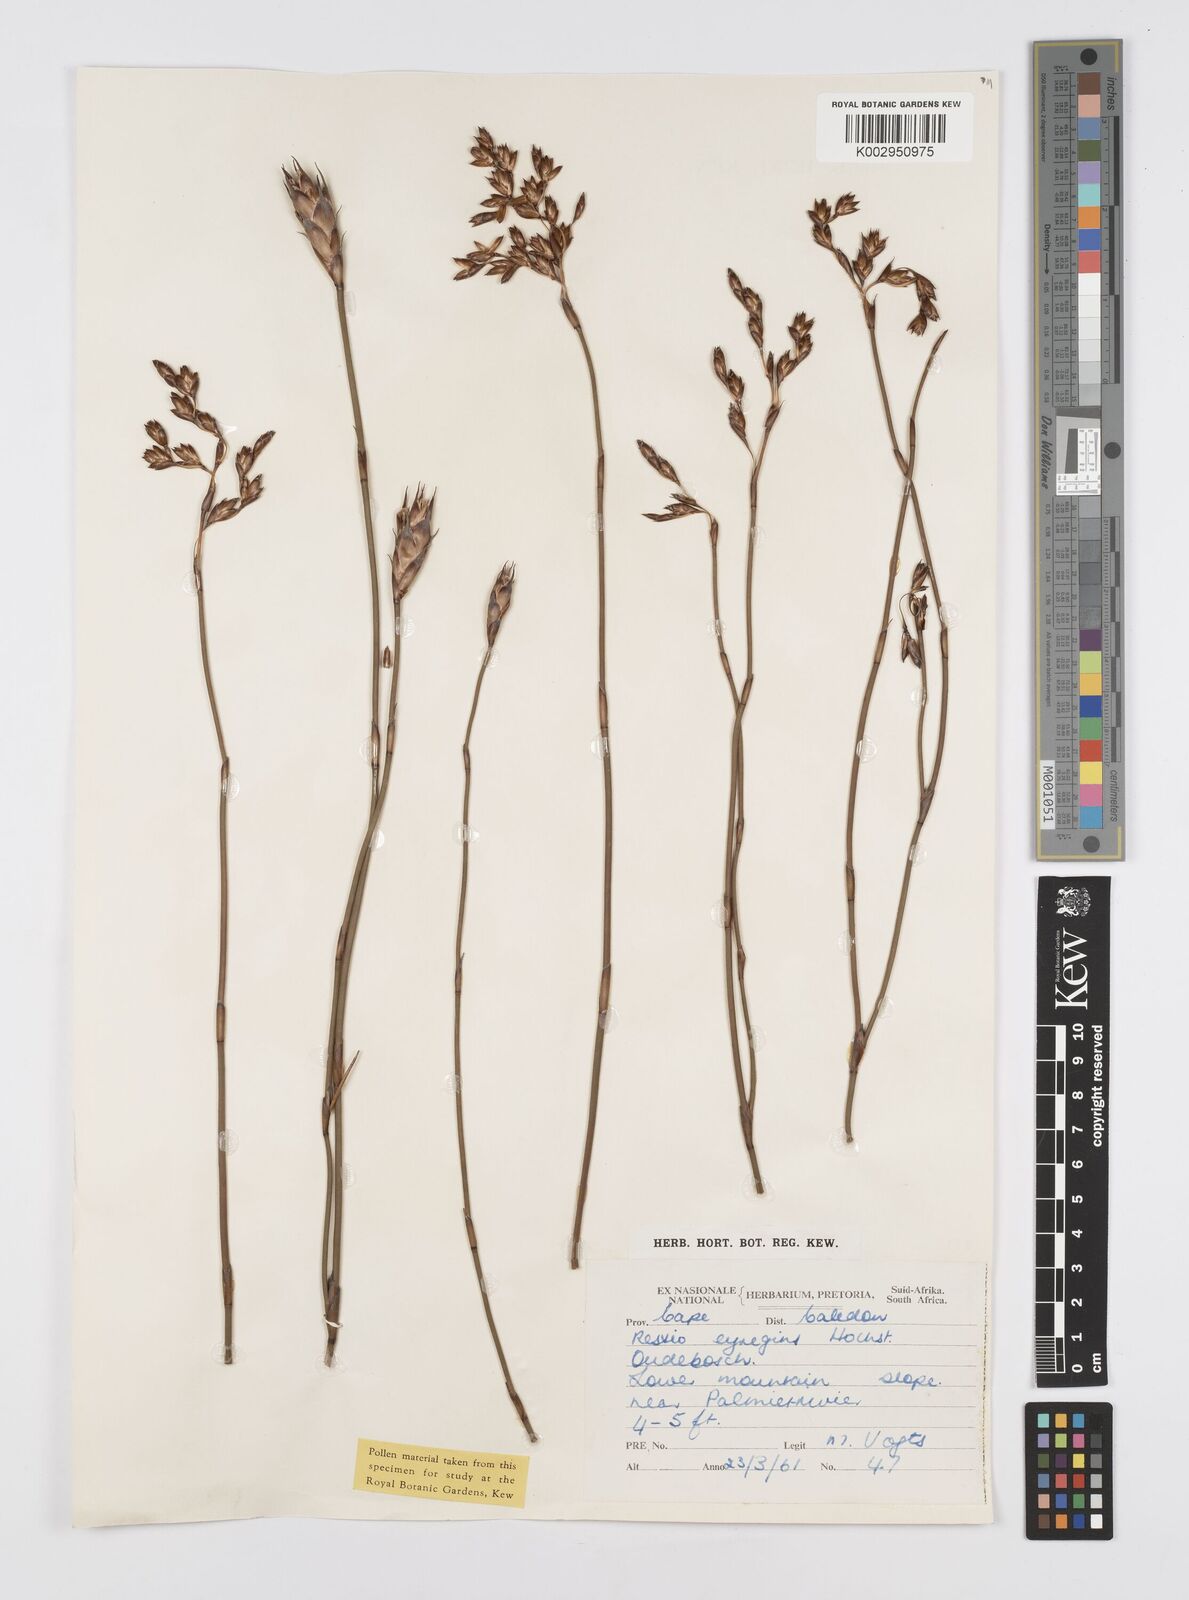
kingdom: Plantae
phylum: Tracheophyta
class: Liliopsida
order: Poales
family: Restionaceae
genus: Restio
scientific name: Restio egregius
